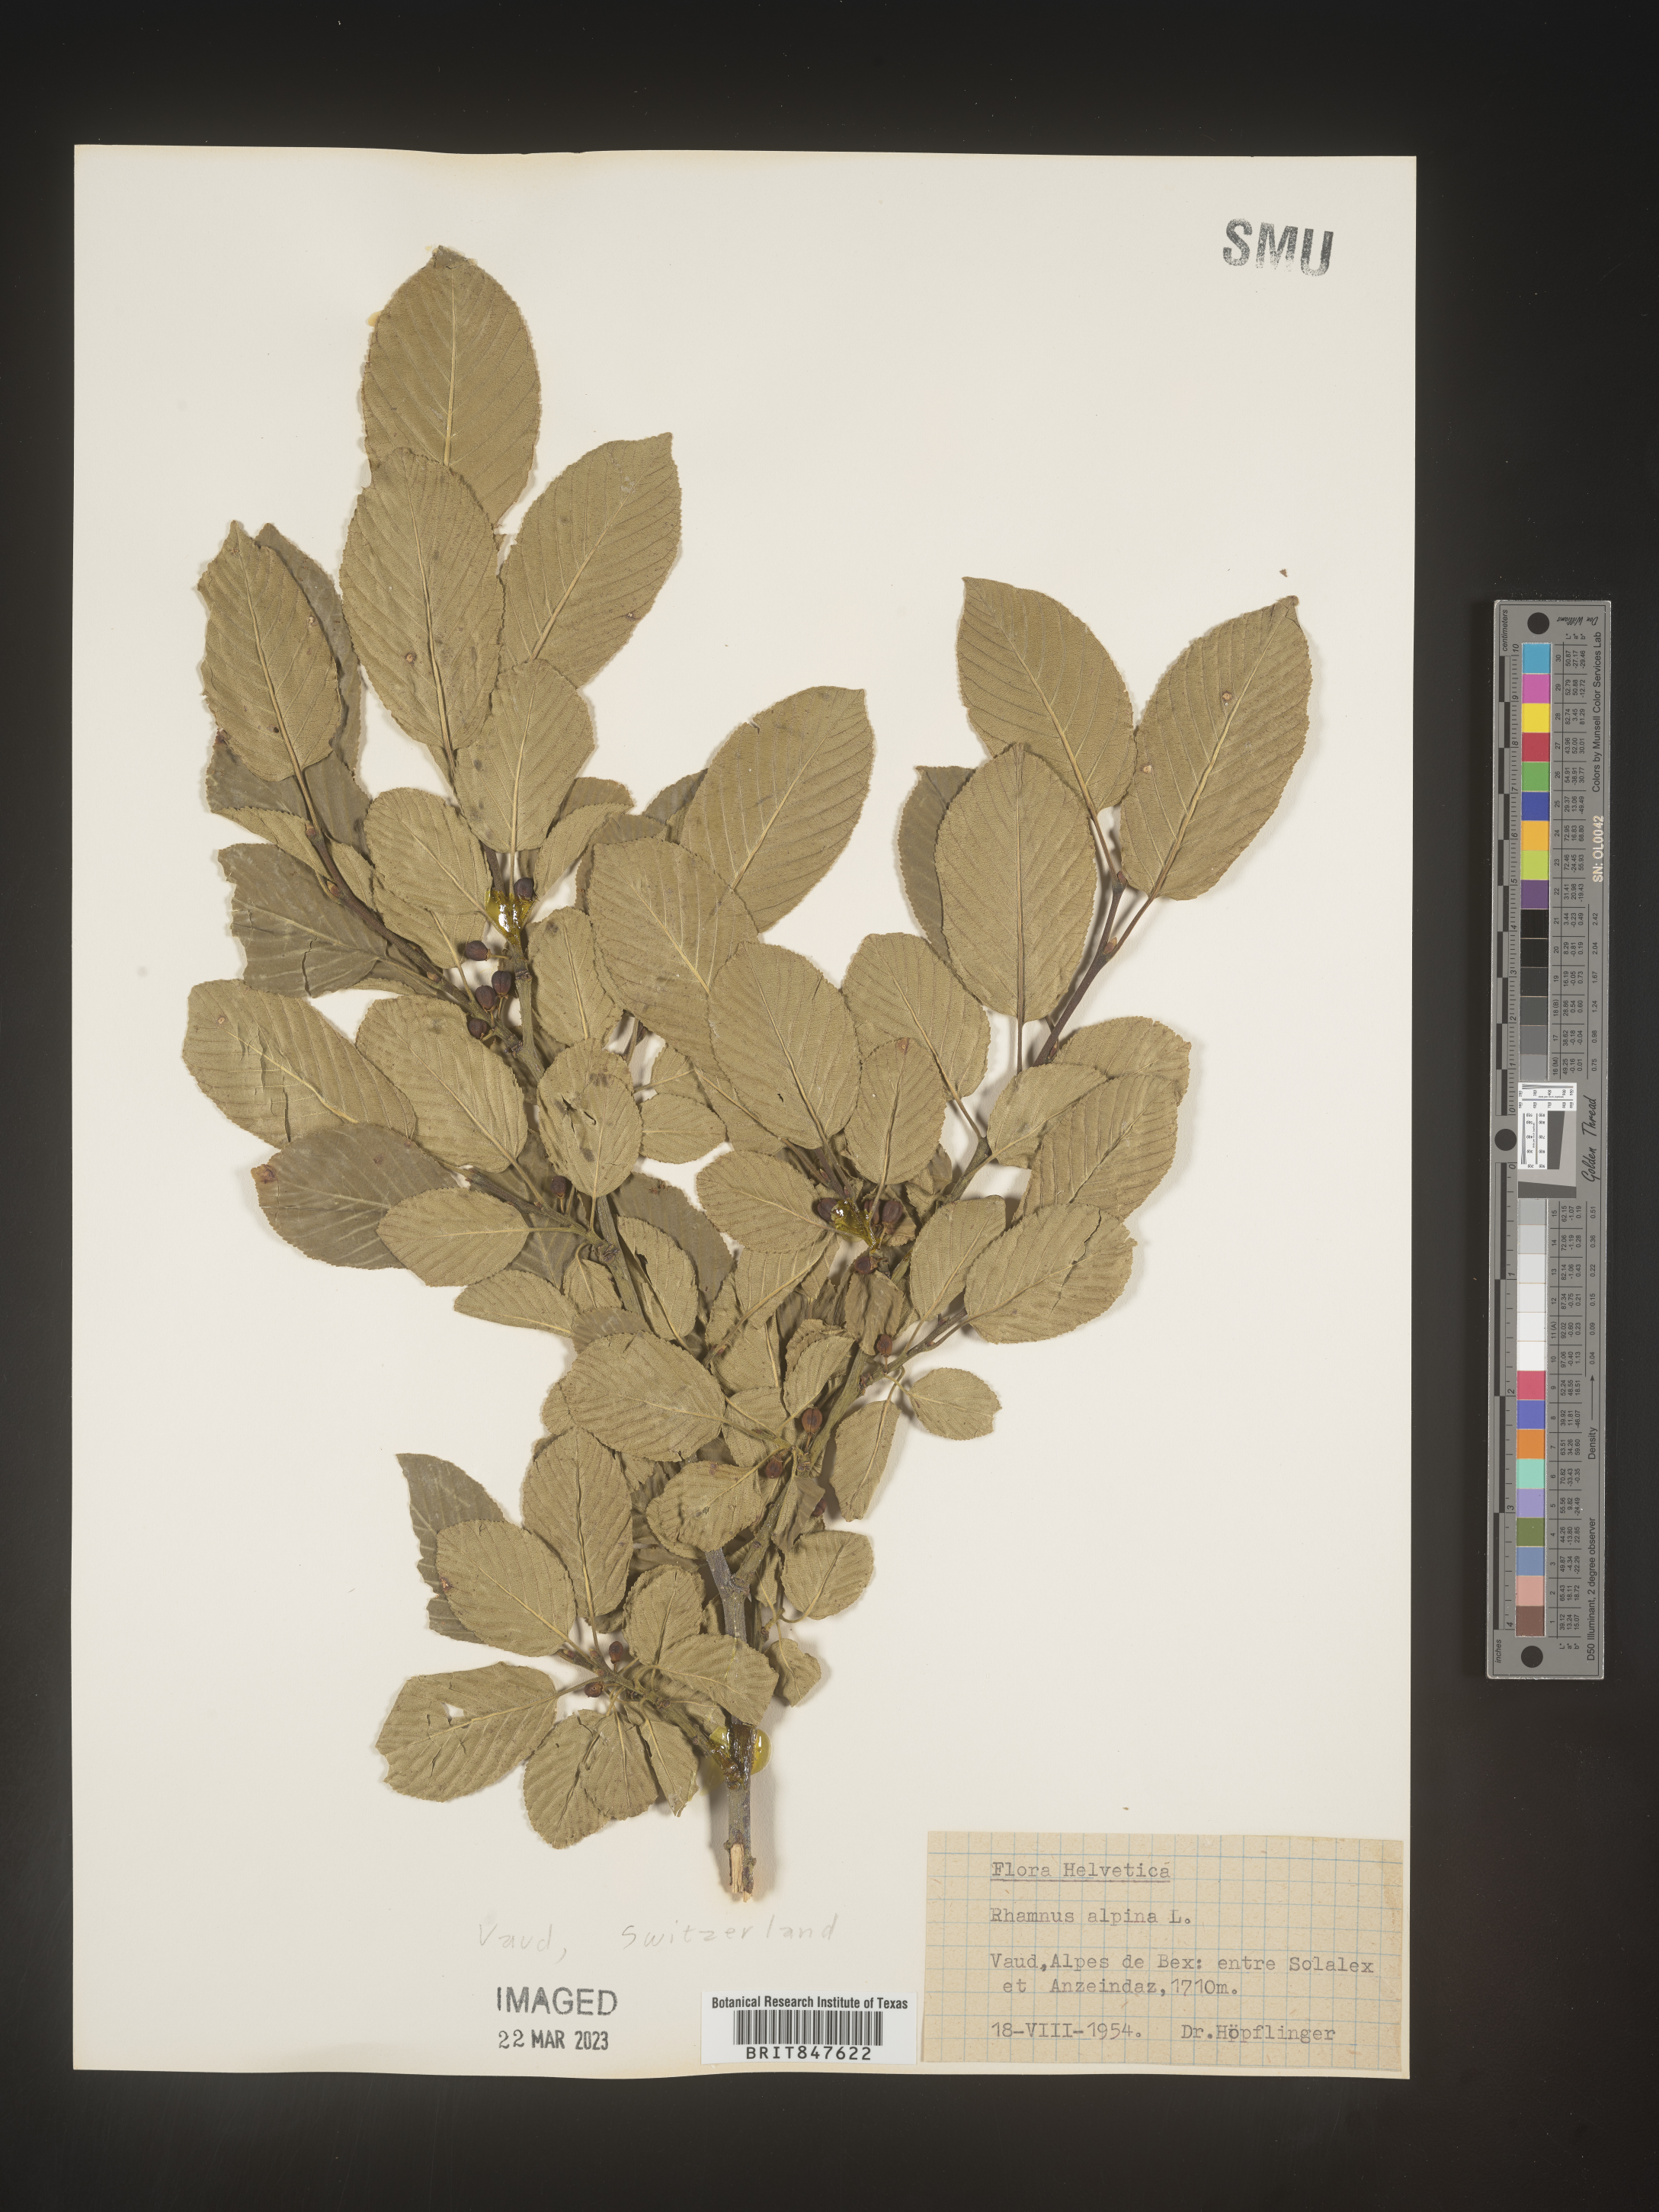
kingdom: Plantae
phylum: Tracheophyta
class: Magnoliopsida
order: Rosales
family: Rhamnaceae
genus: Rhamnus
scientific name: Rhamnus
